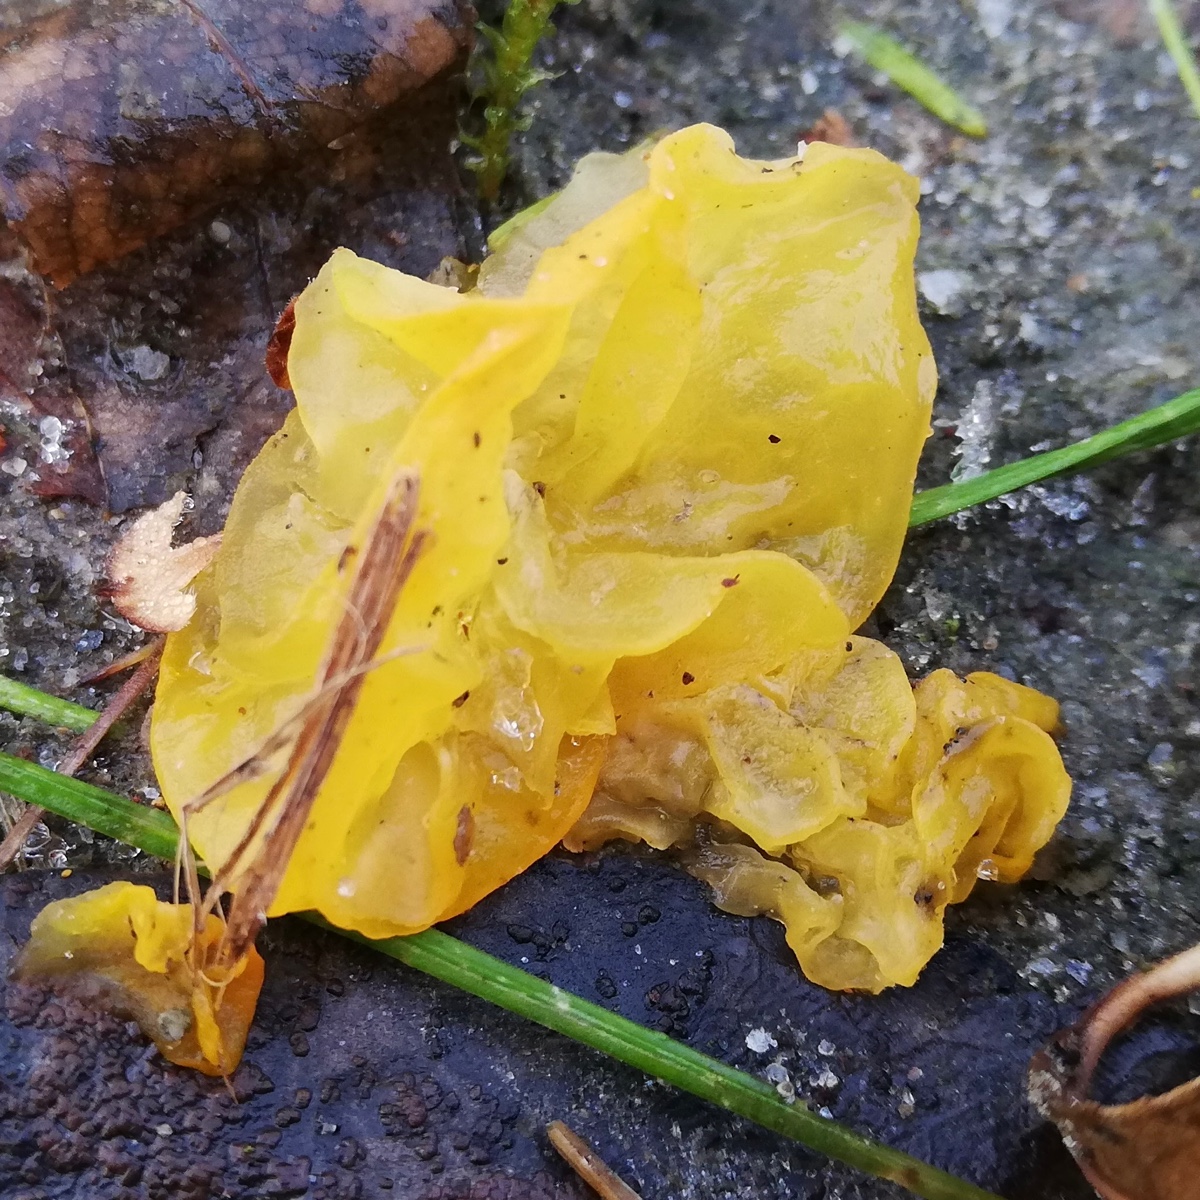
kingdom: Fungi
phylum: Basidiomycota
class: Tremellomycetes
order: Tremellales
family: Tremellaceae
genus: Tremella
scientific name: Tremella mesenterica
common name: gul bævresvamp
